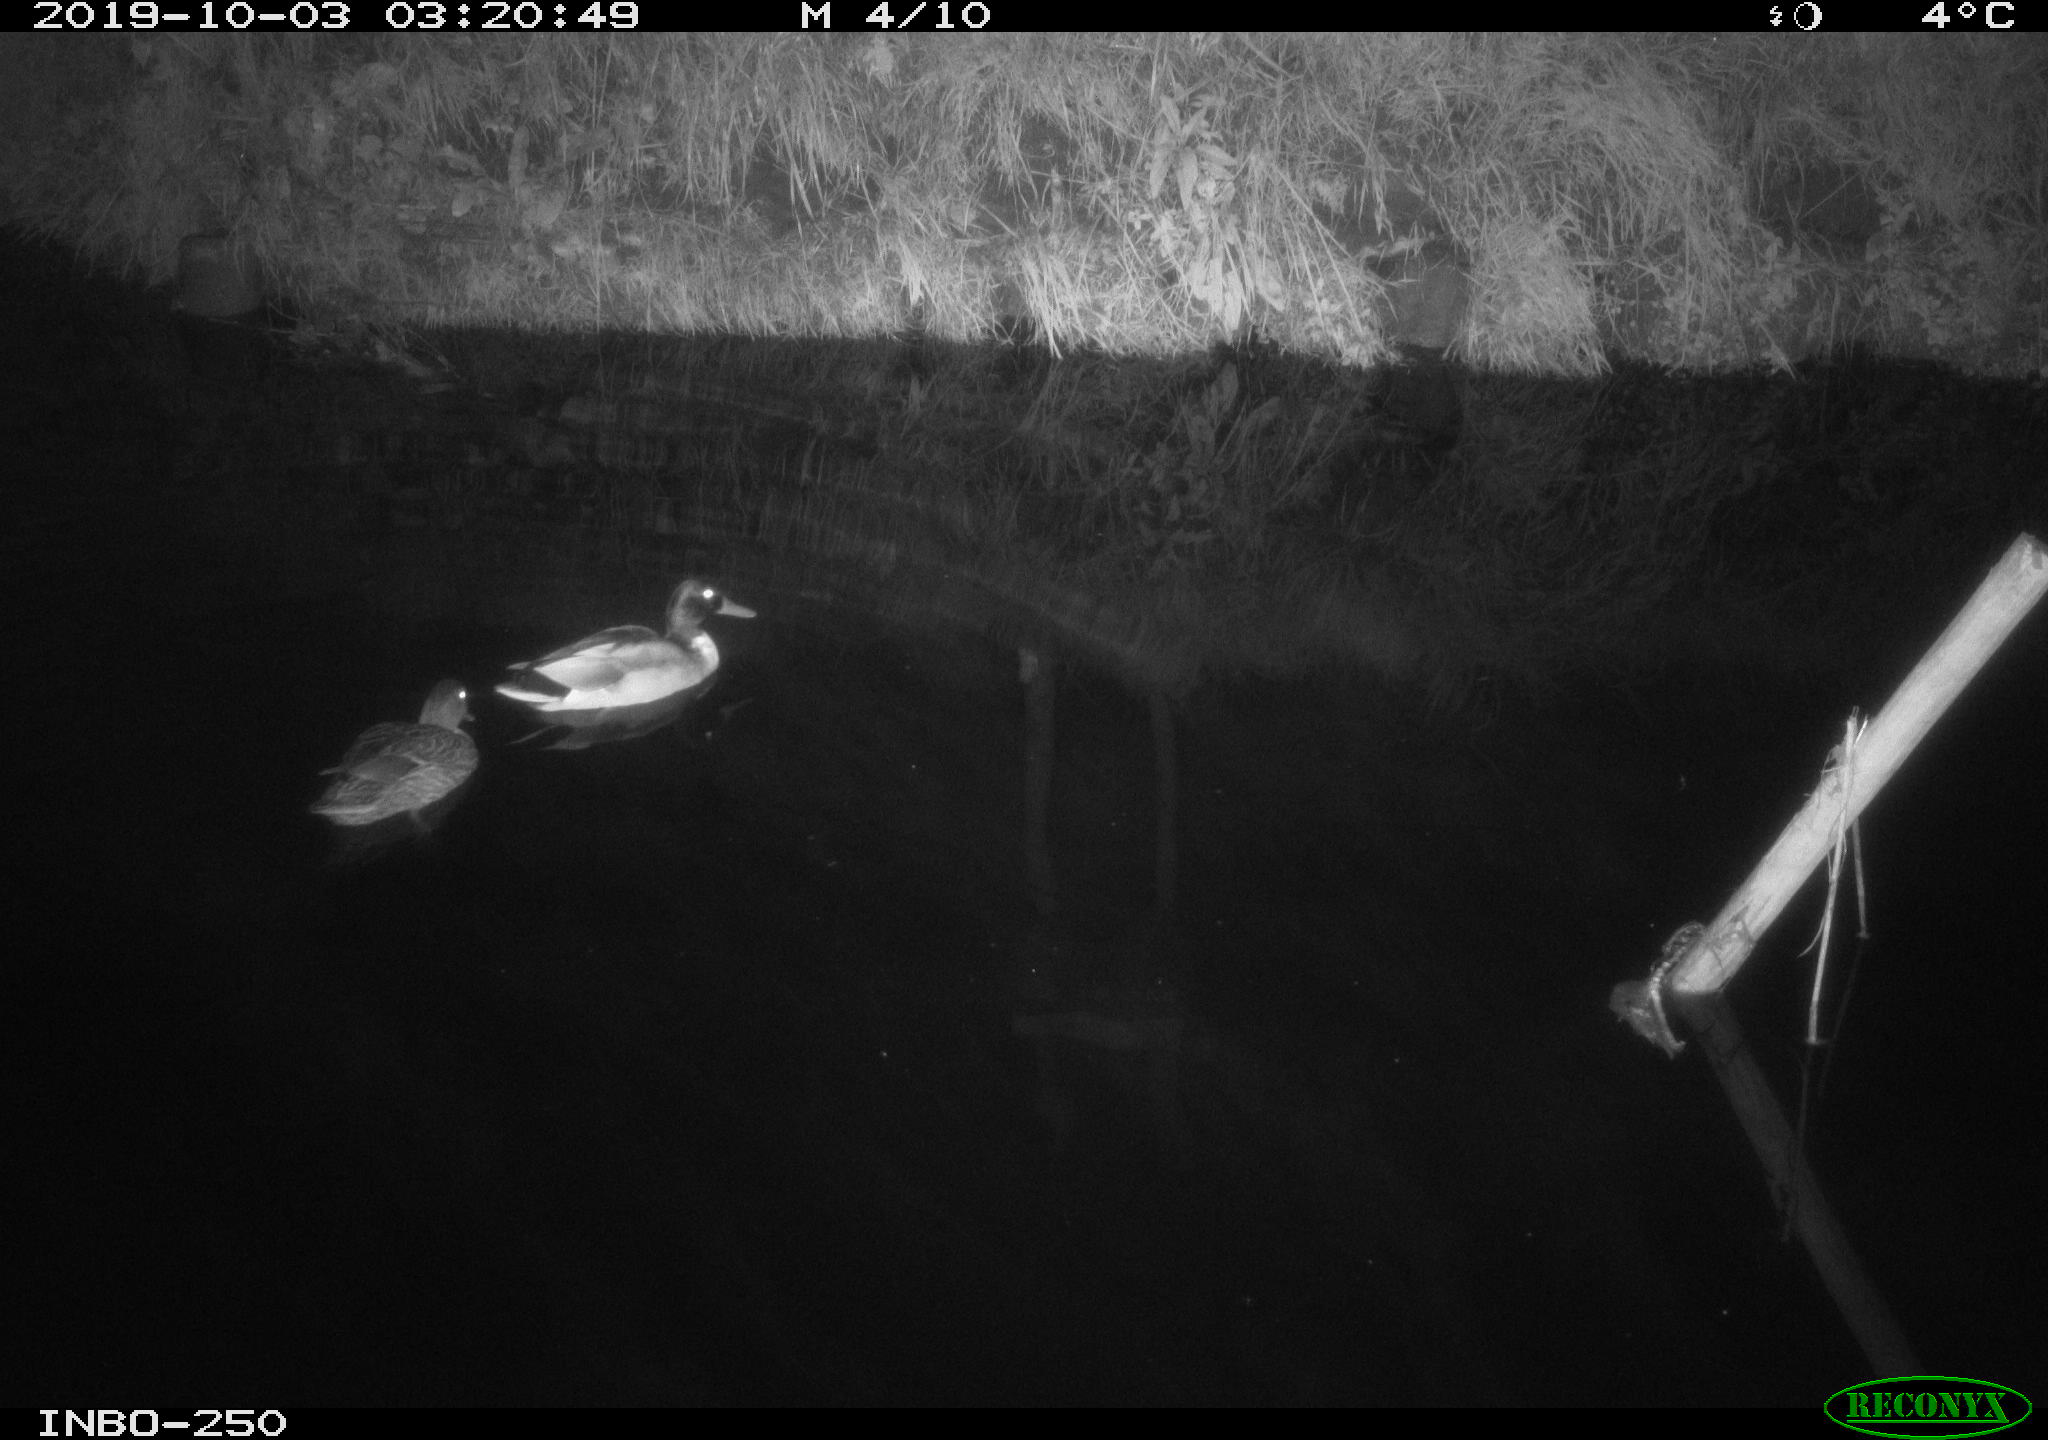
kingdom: Animalia
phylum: Chordata
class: Aves
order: Anseriformes
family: Anatidae
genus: Anas
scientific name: Anas platyrhynchos
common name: Mallard
